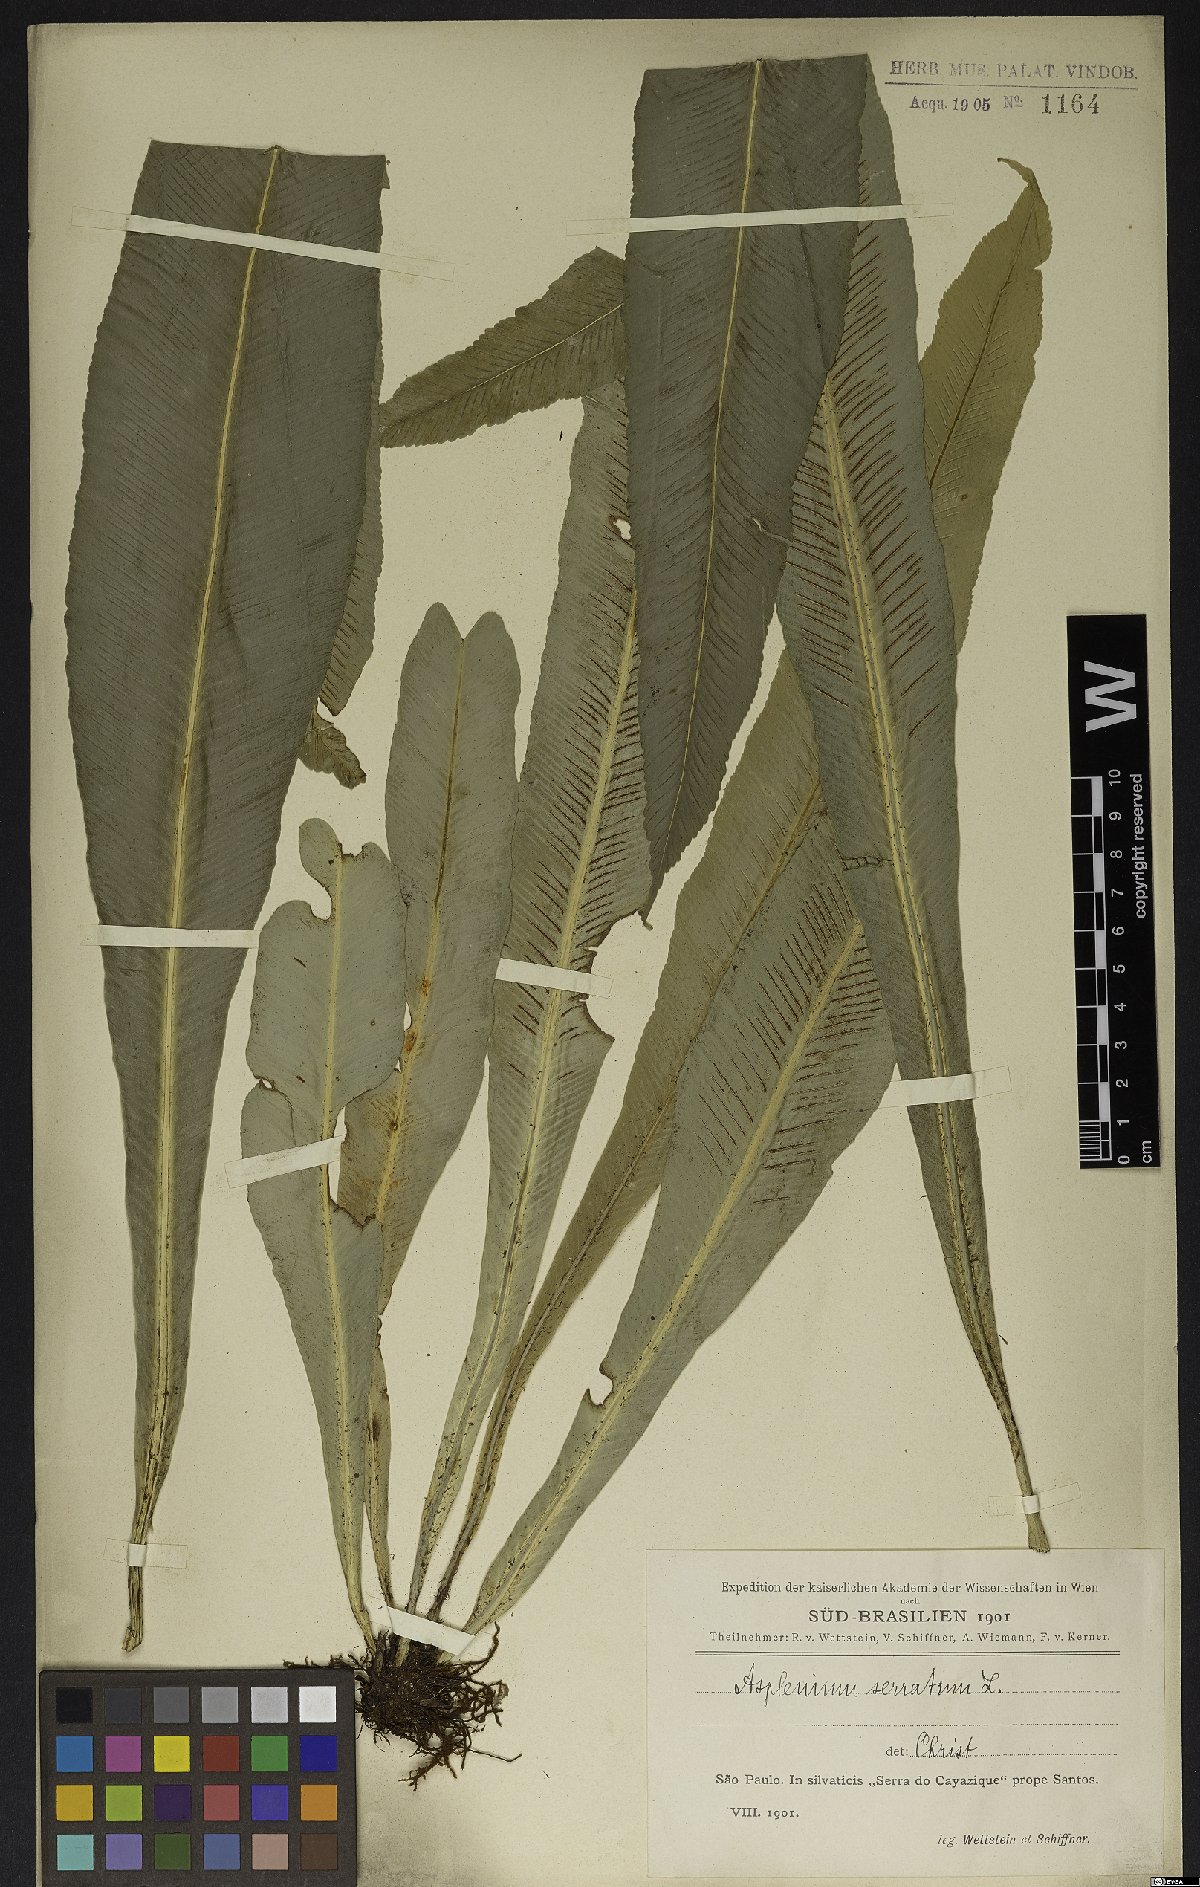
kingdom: Plantae
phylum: Tracheophyta
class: Polypodiopsida
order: Polypodiales
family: Aspleniaceae
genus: Asplenium
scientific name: Asplenium serratum
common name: Wild birdnest fern
